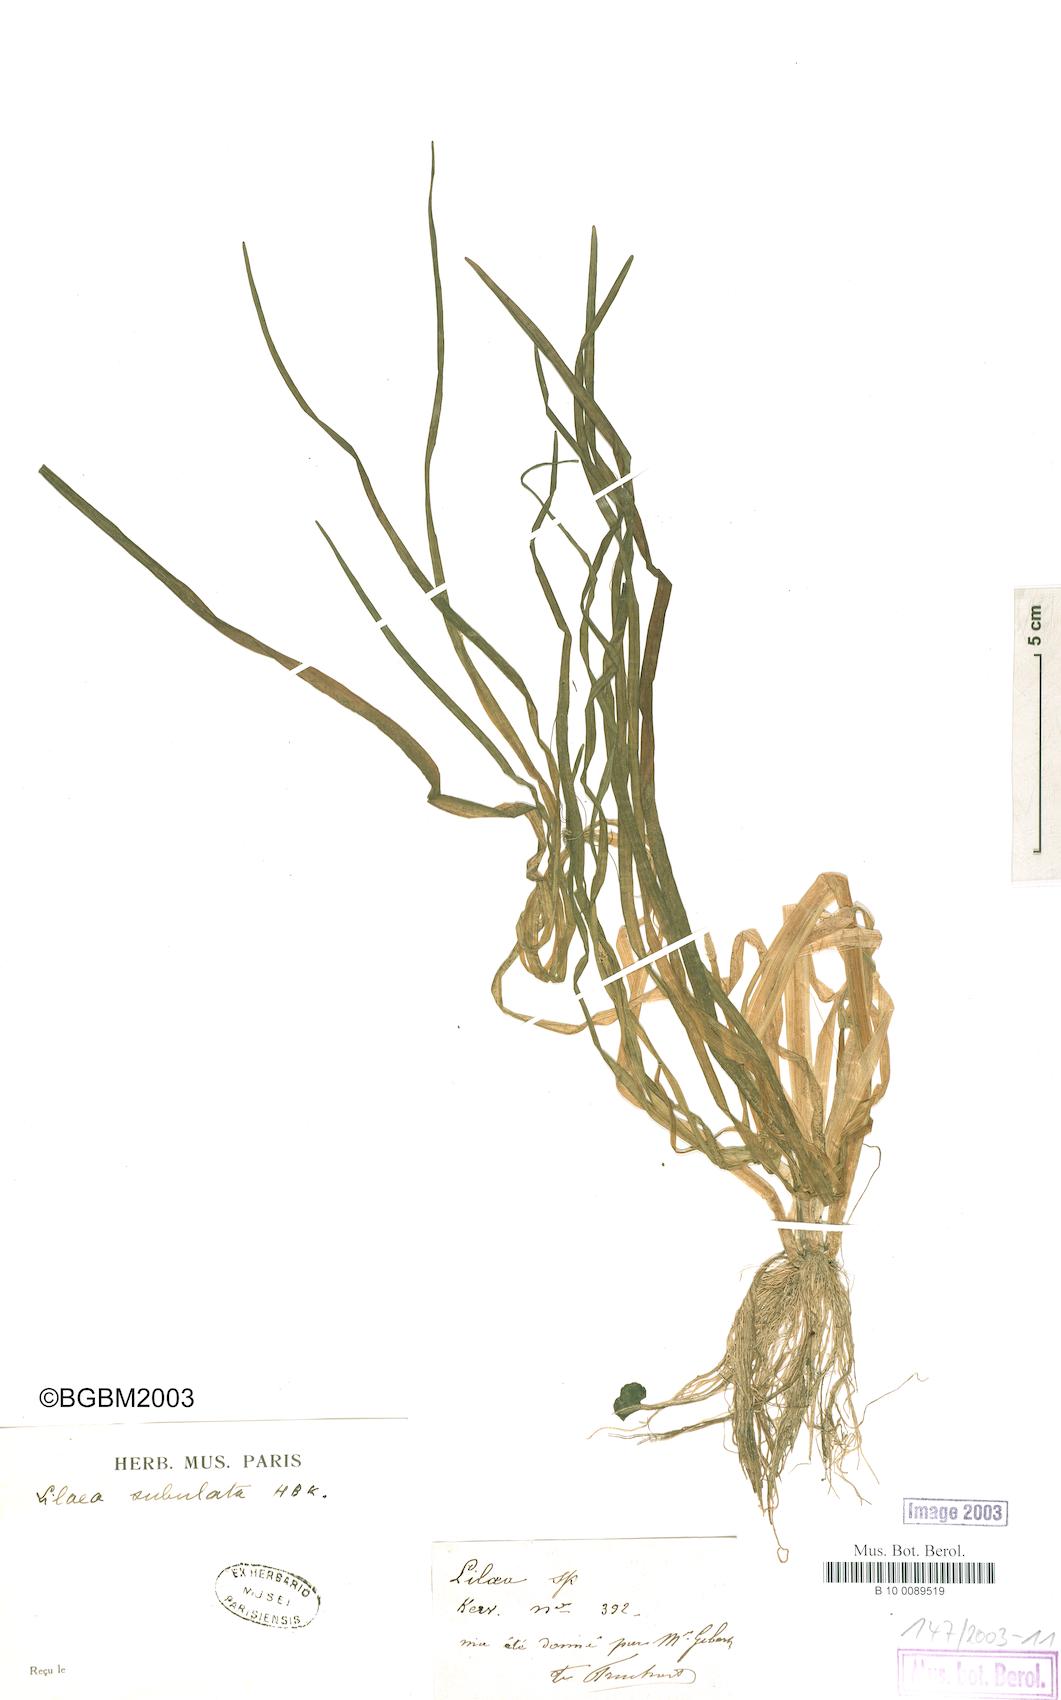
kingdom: Plantae
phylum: Tracheophyta
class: Liliopsida
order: Alismatales
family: Juncaginaceae
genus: Triglochin
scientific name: Triglochin scilloides
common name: Awl-leaved lilaea
